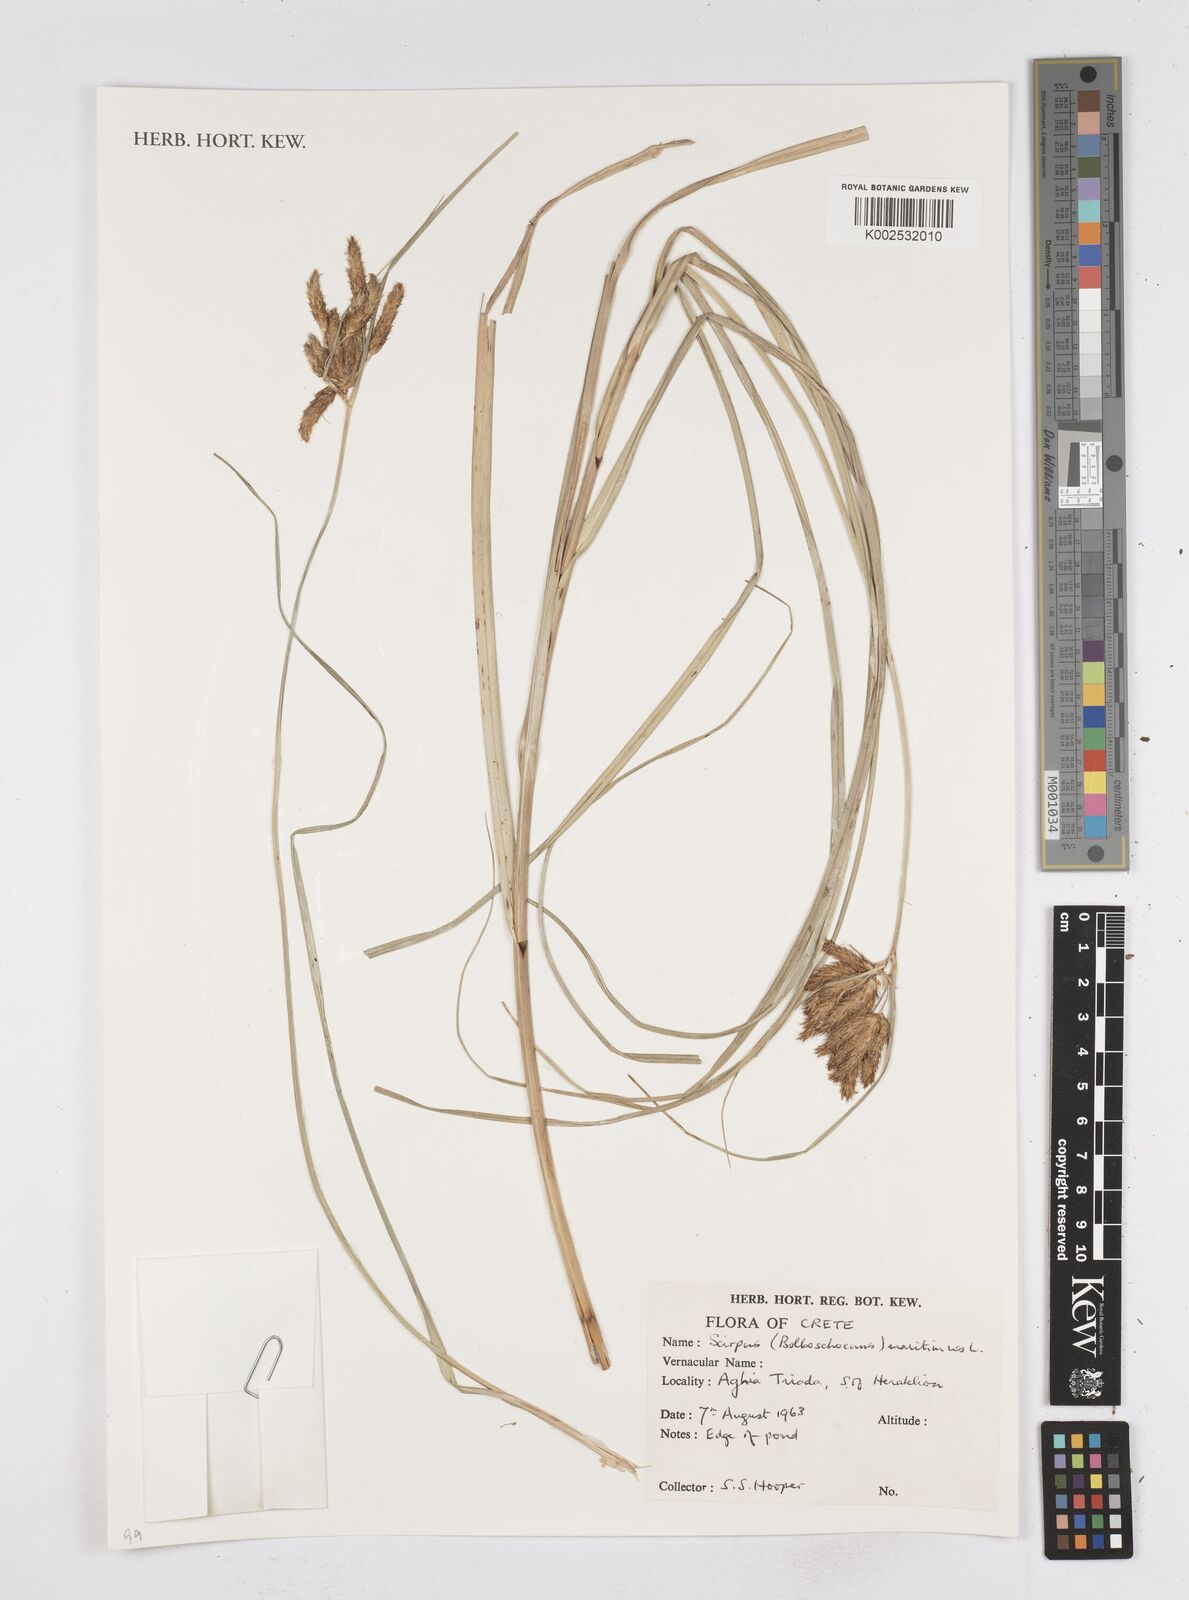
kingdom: Plantae
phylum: Tracheophyta
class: Liliopsida
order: Poales
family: Cyperaceae
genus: Bolboschoenus
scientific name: Bolboschoenus maritimus
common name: Sea club-rush
